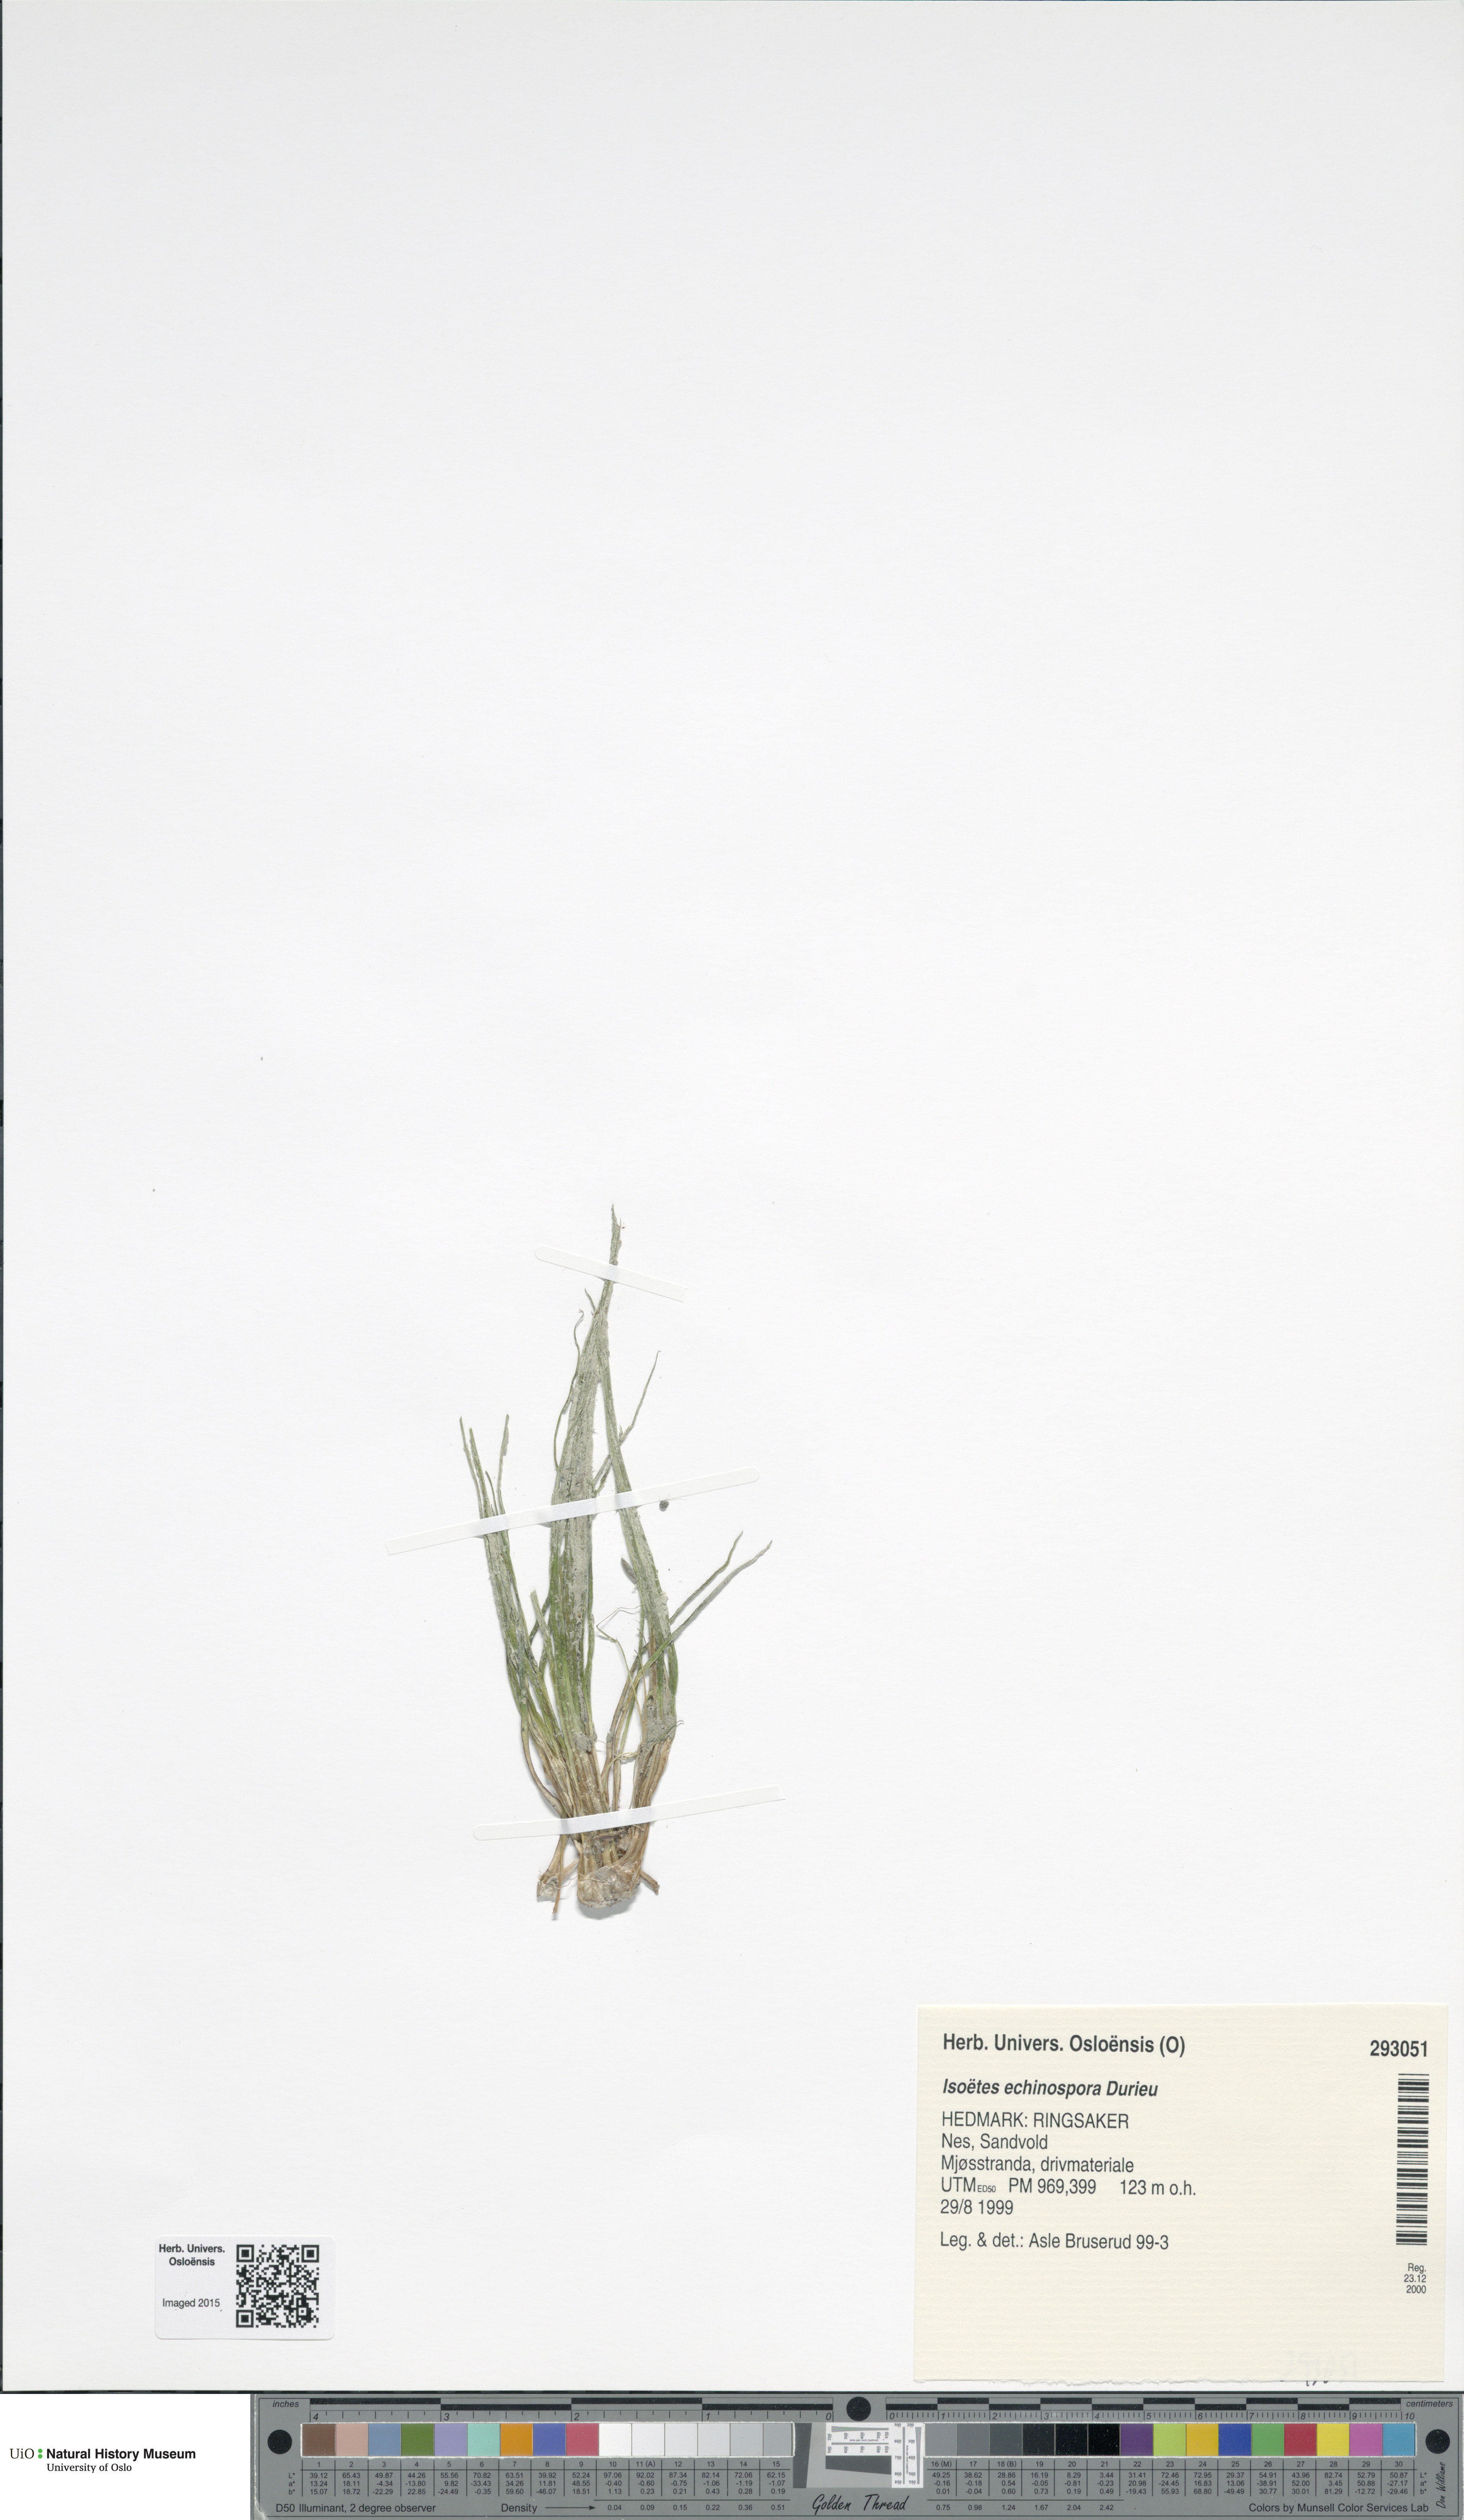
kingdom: Plantae
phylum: Tracheophyta
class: Lycopodiopsida
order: Isoetales
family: Isoetaceae
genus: Isoetes
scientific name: Isoetes echinospora
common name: Spring quillwort
